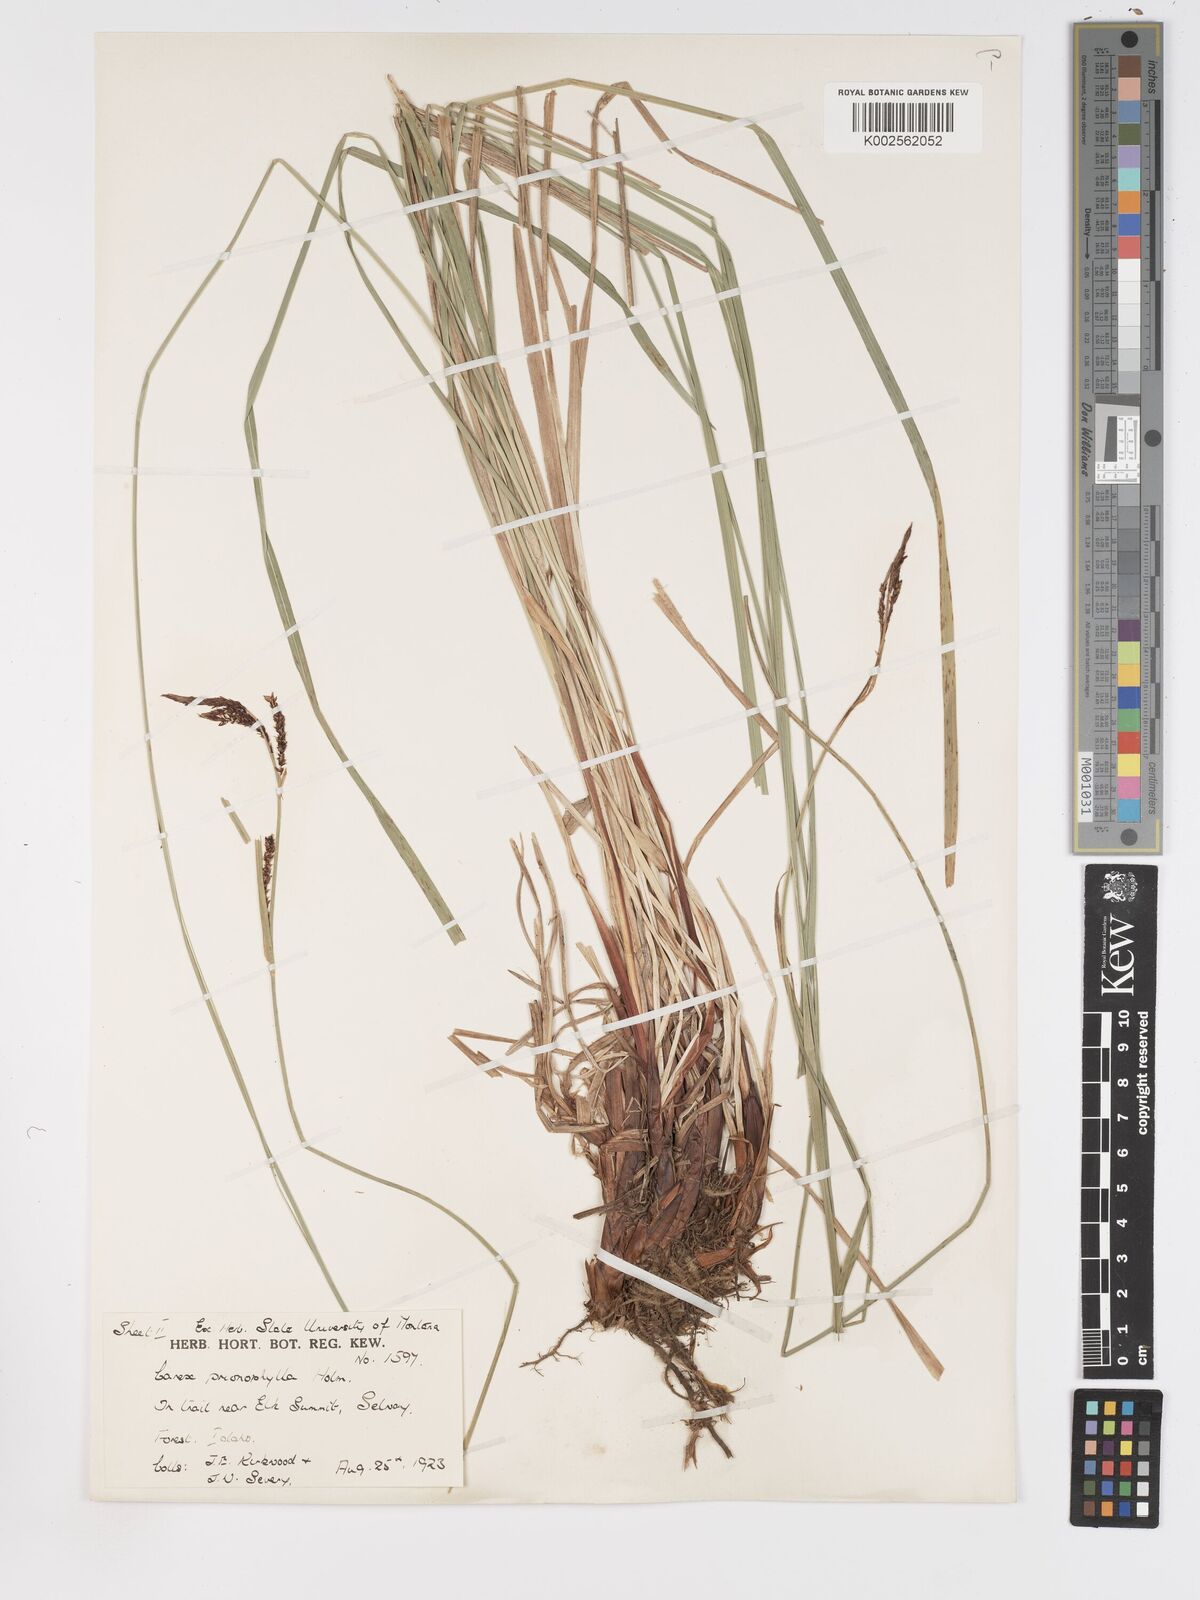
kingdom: Plantae
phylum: Tracheophyta
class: Liliopsida
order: Poales
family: Cyperaceae
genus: Carex
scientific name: Carex scopulorum
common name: Holm's rocky mountain sedge
